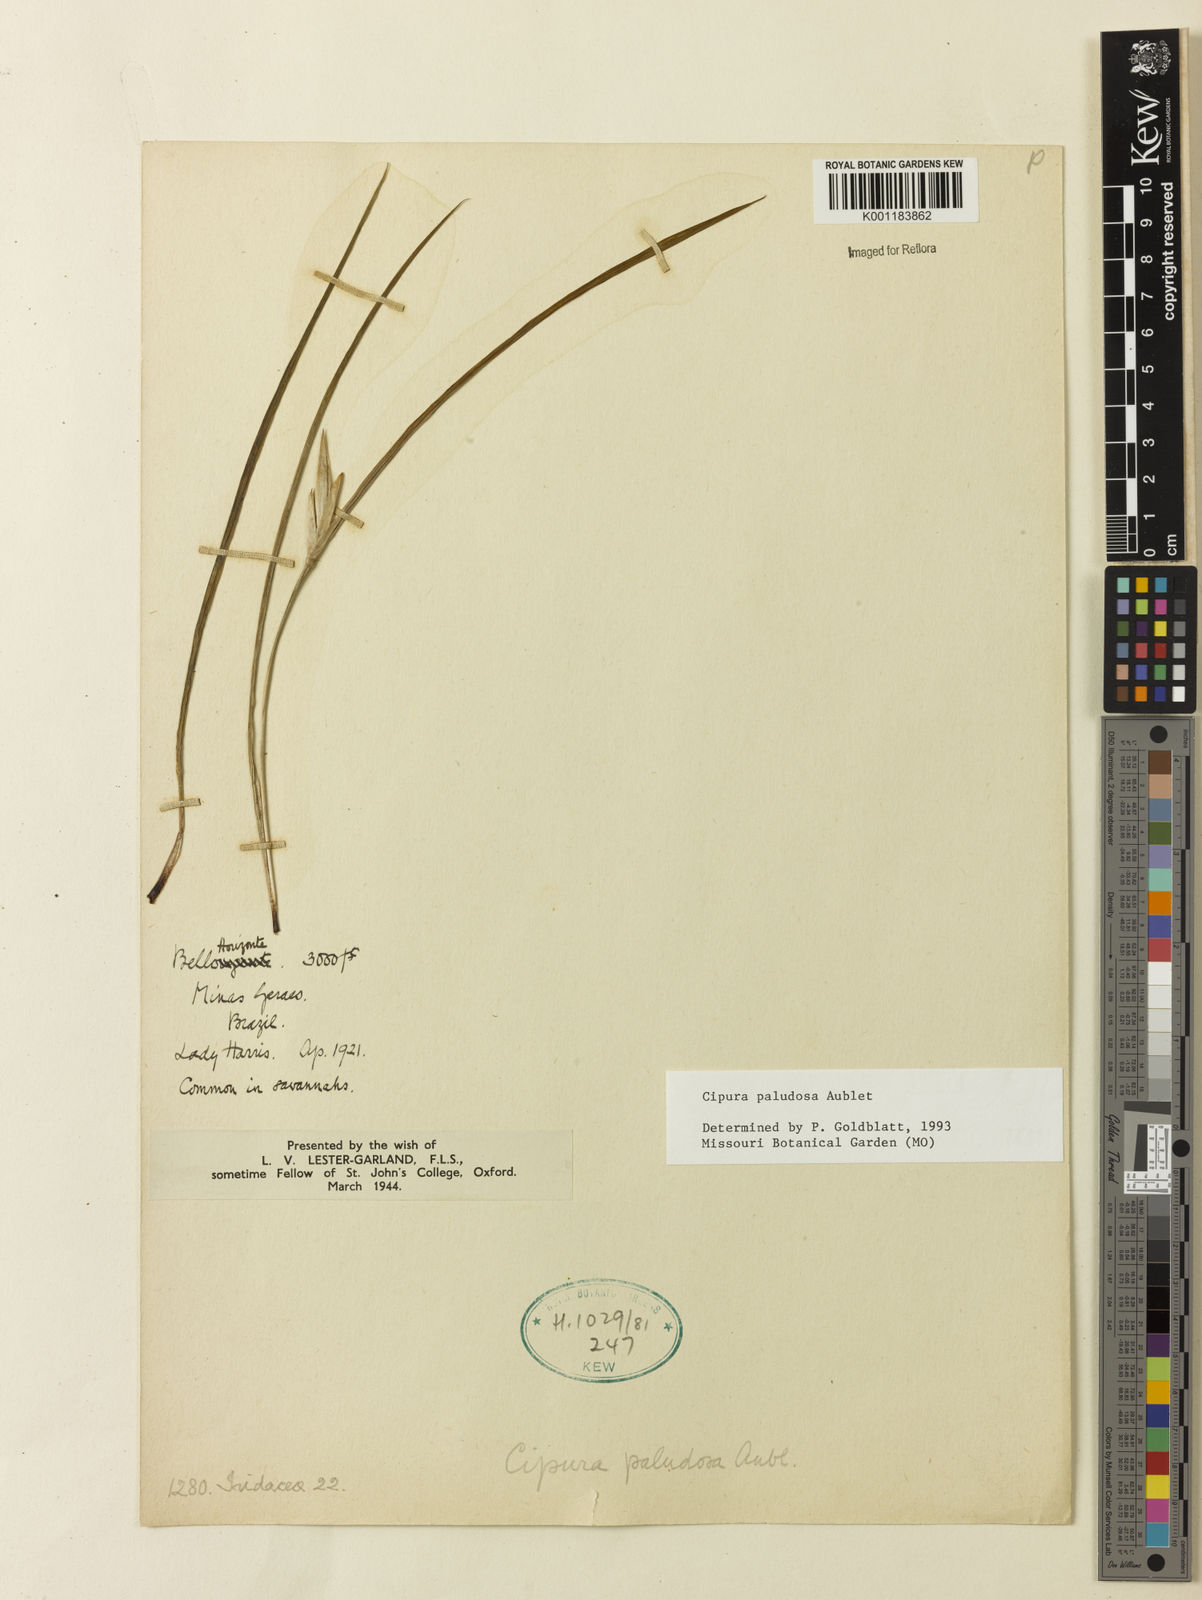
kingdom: Plantae
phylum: Tracheophyta
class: Liliopsida
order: Asparagales
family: Iridaceae
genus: Cipura
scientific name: Cipura paludosa
